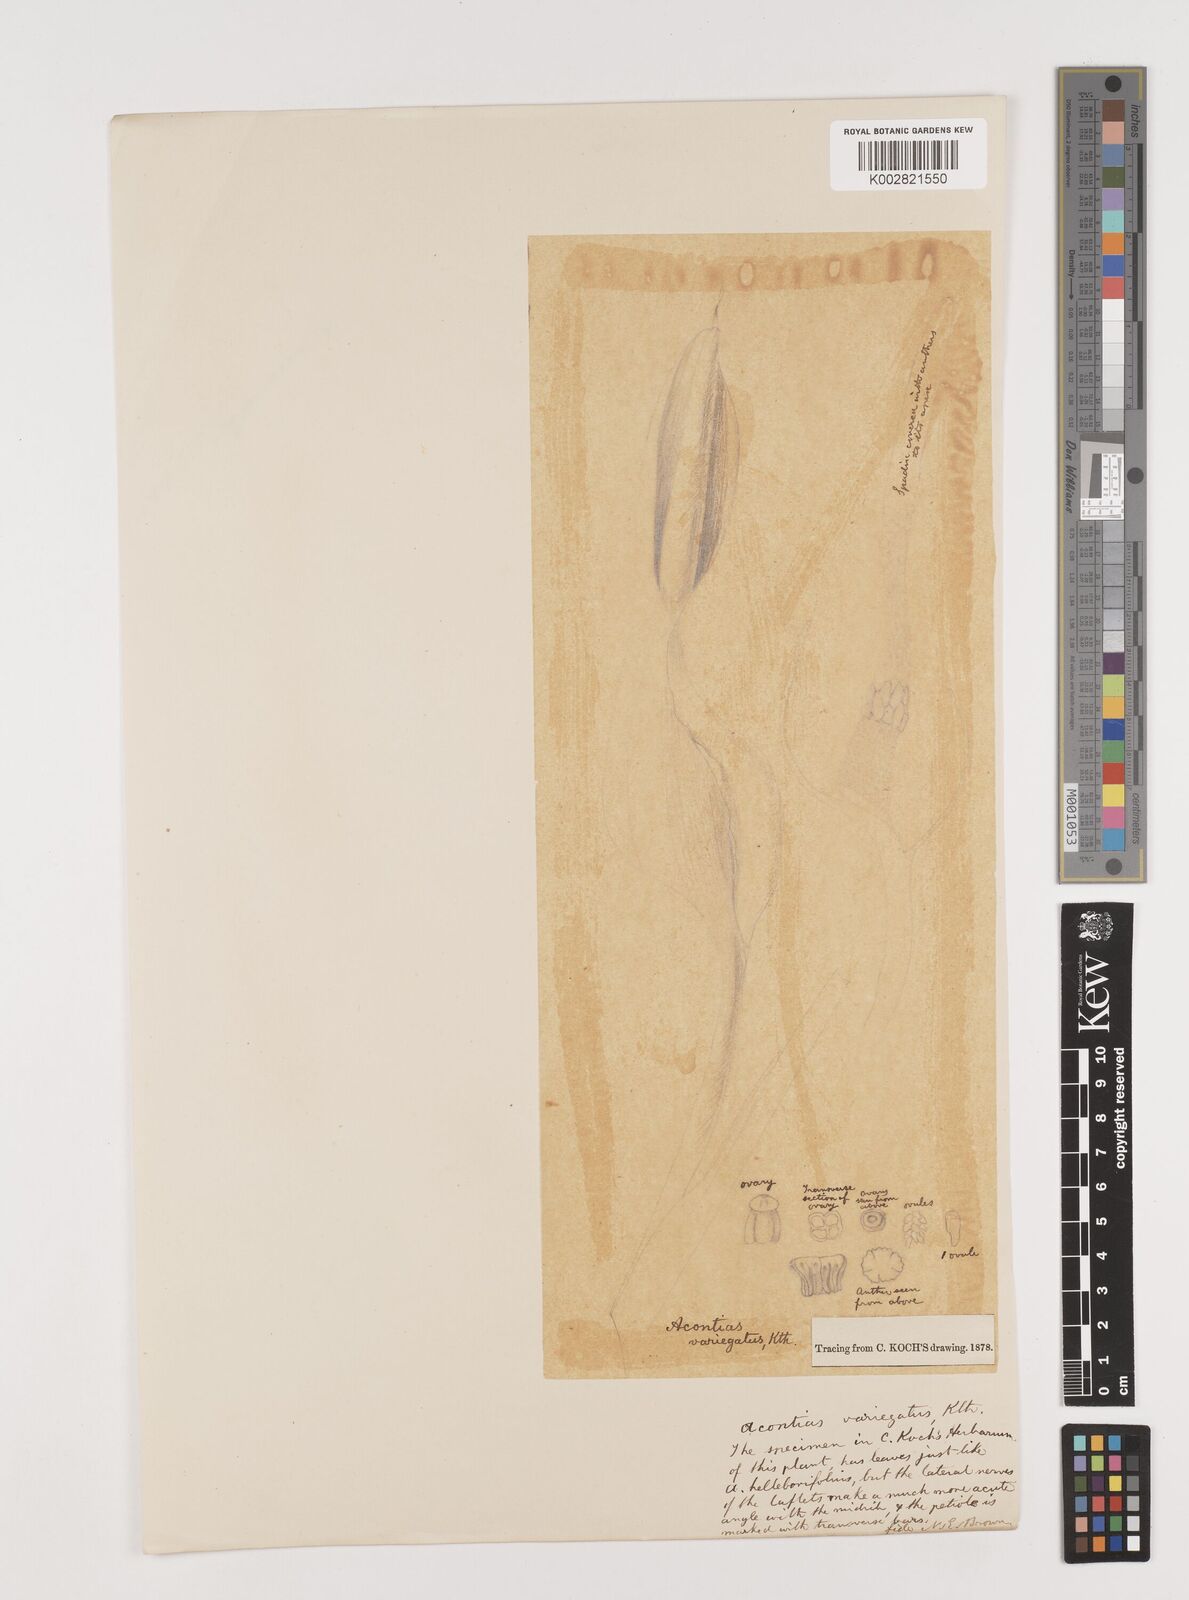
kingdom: Plantae
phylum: Tracheophyta
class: Liliopsida
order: Alismatales
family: Araceae
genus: Xanthosoma
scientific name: Xanthosoma helleborifolium
